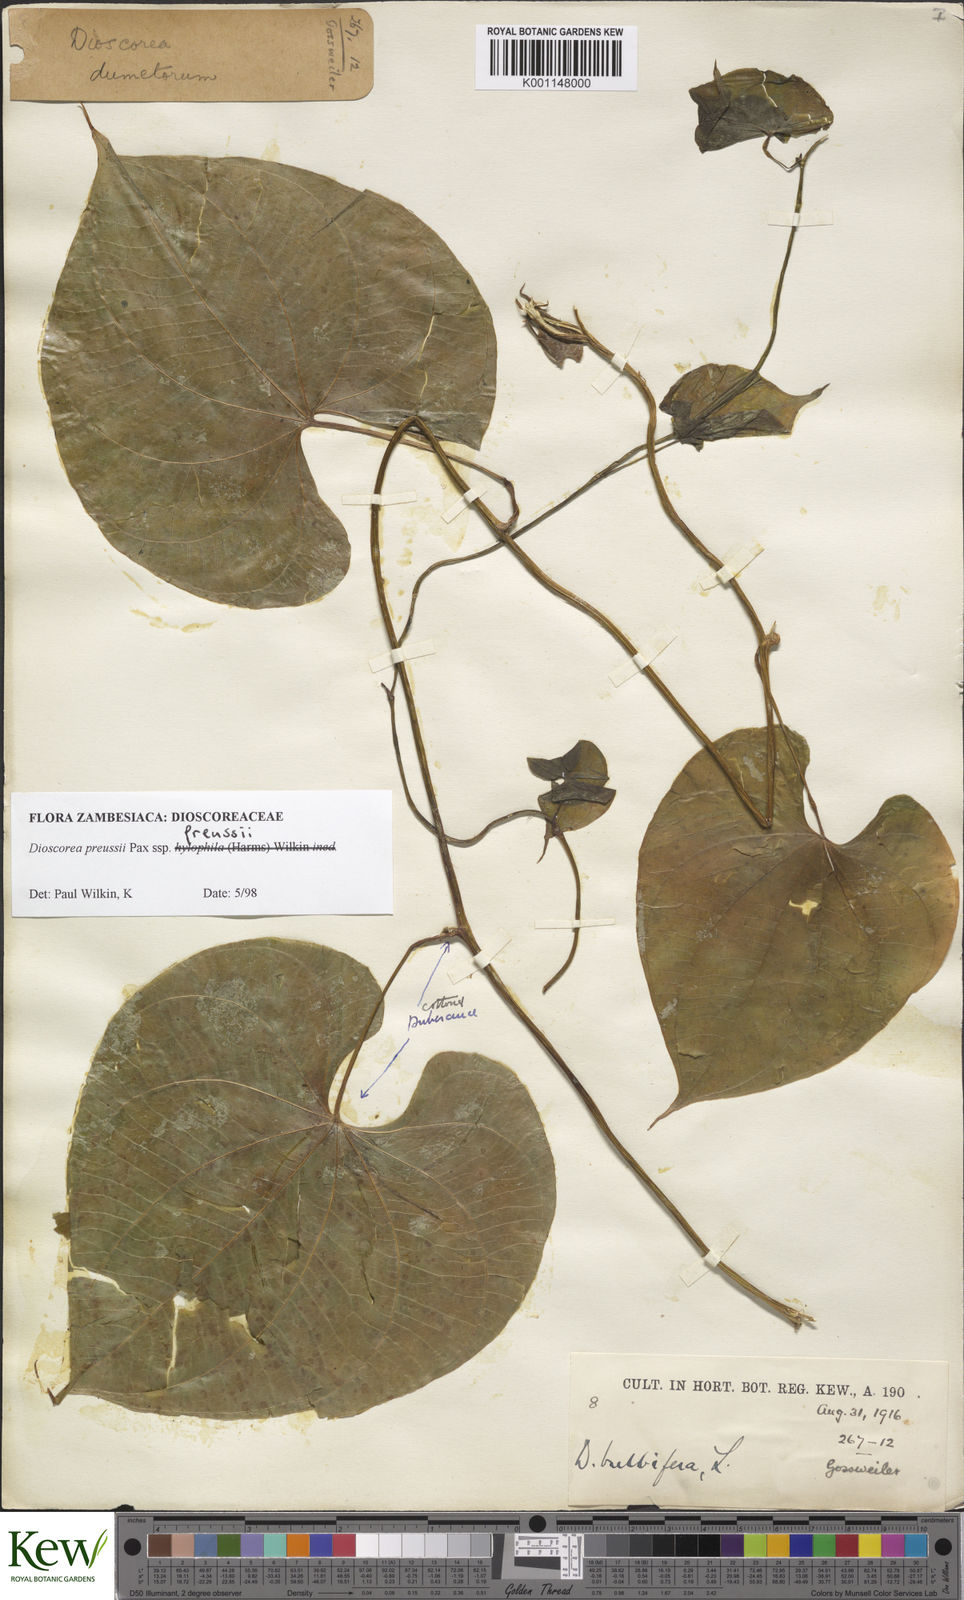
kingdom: Plantae
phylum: Tracheophyta
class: Liliopsida
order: Dioscoreales
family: Dioscoreaceae
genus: Dioscorea
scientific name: Dioscorea preussii
